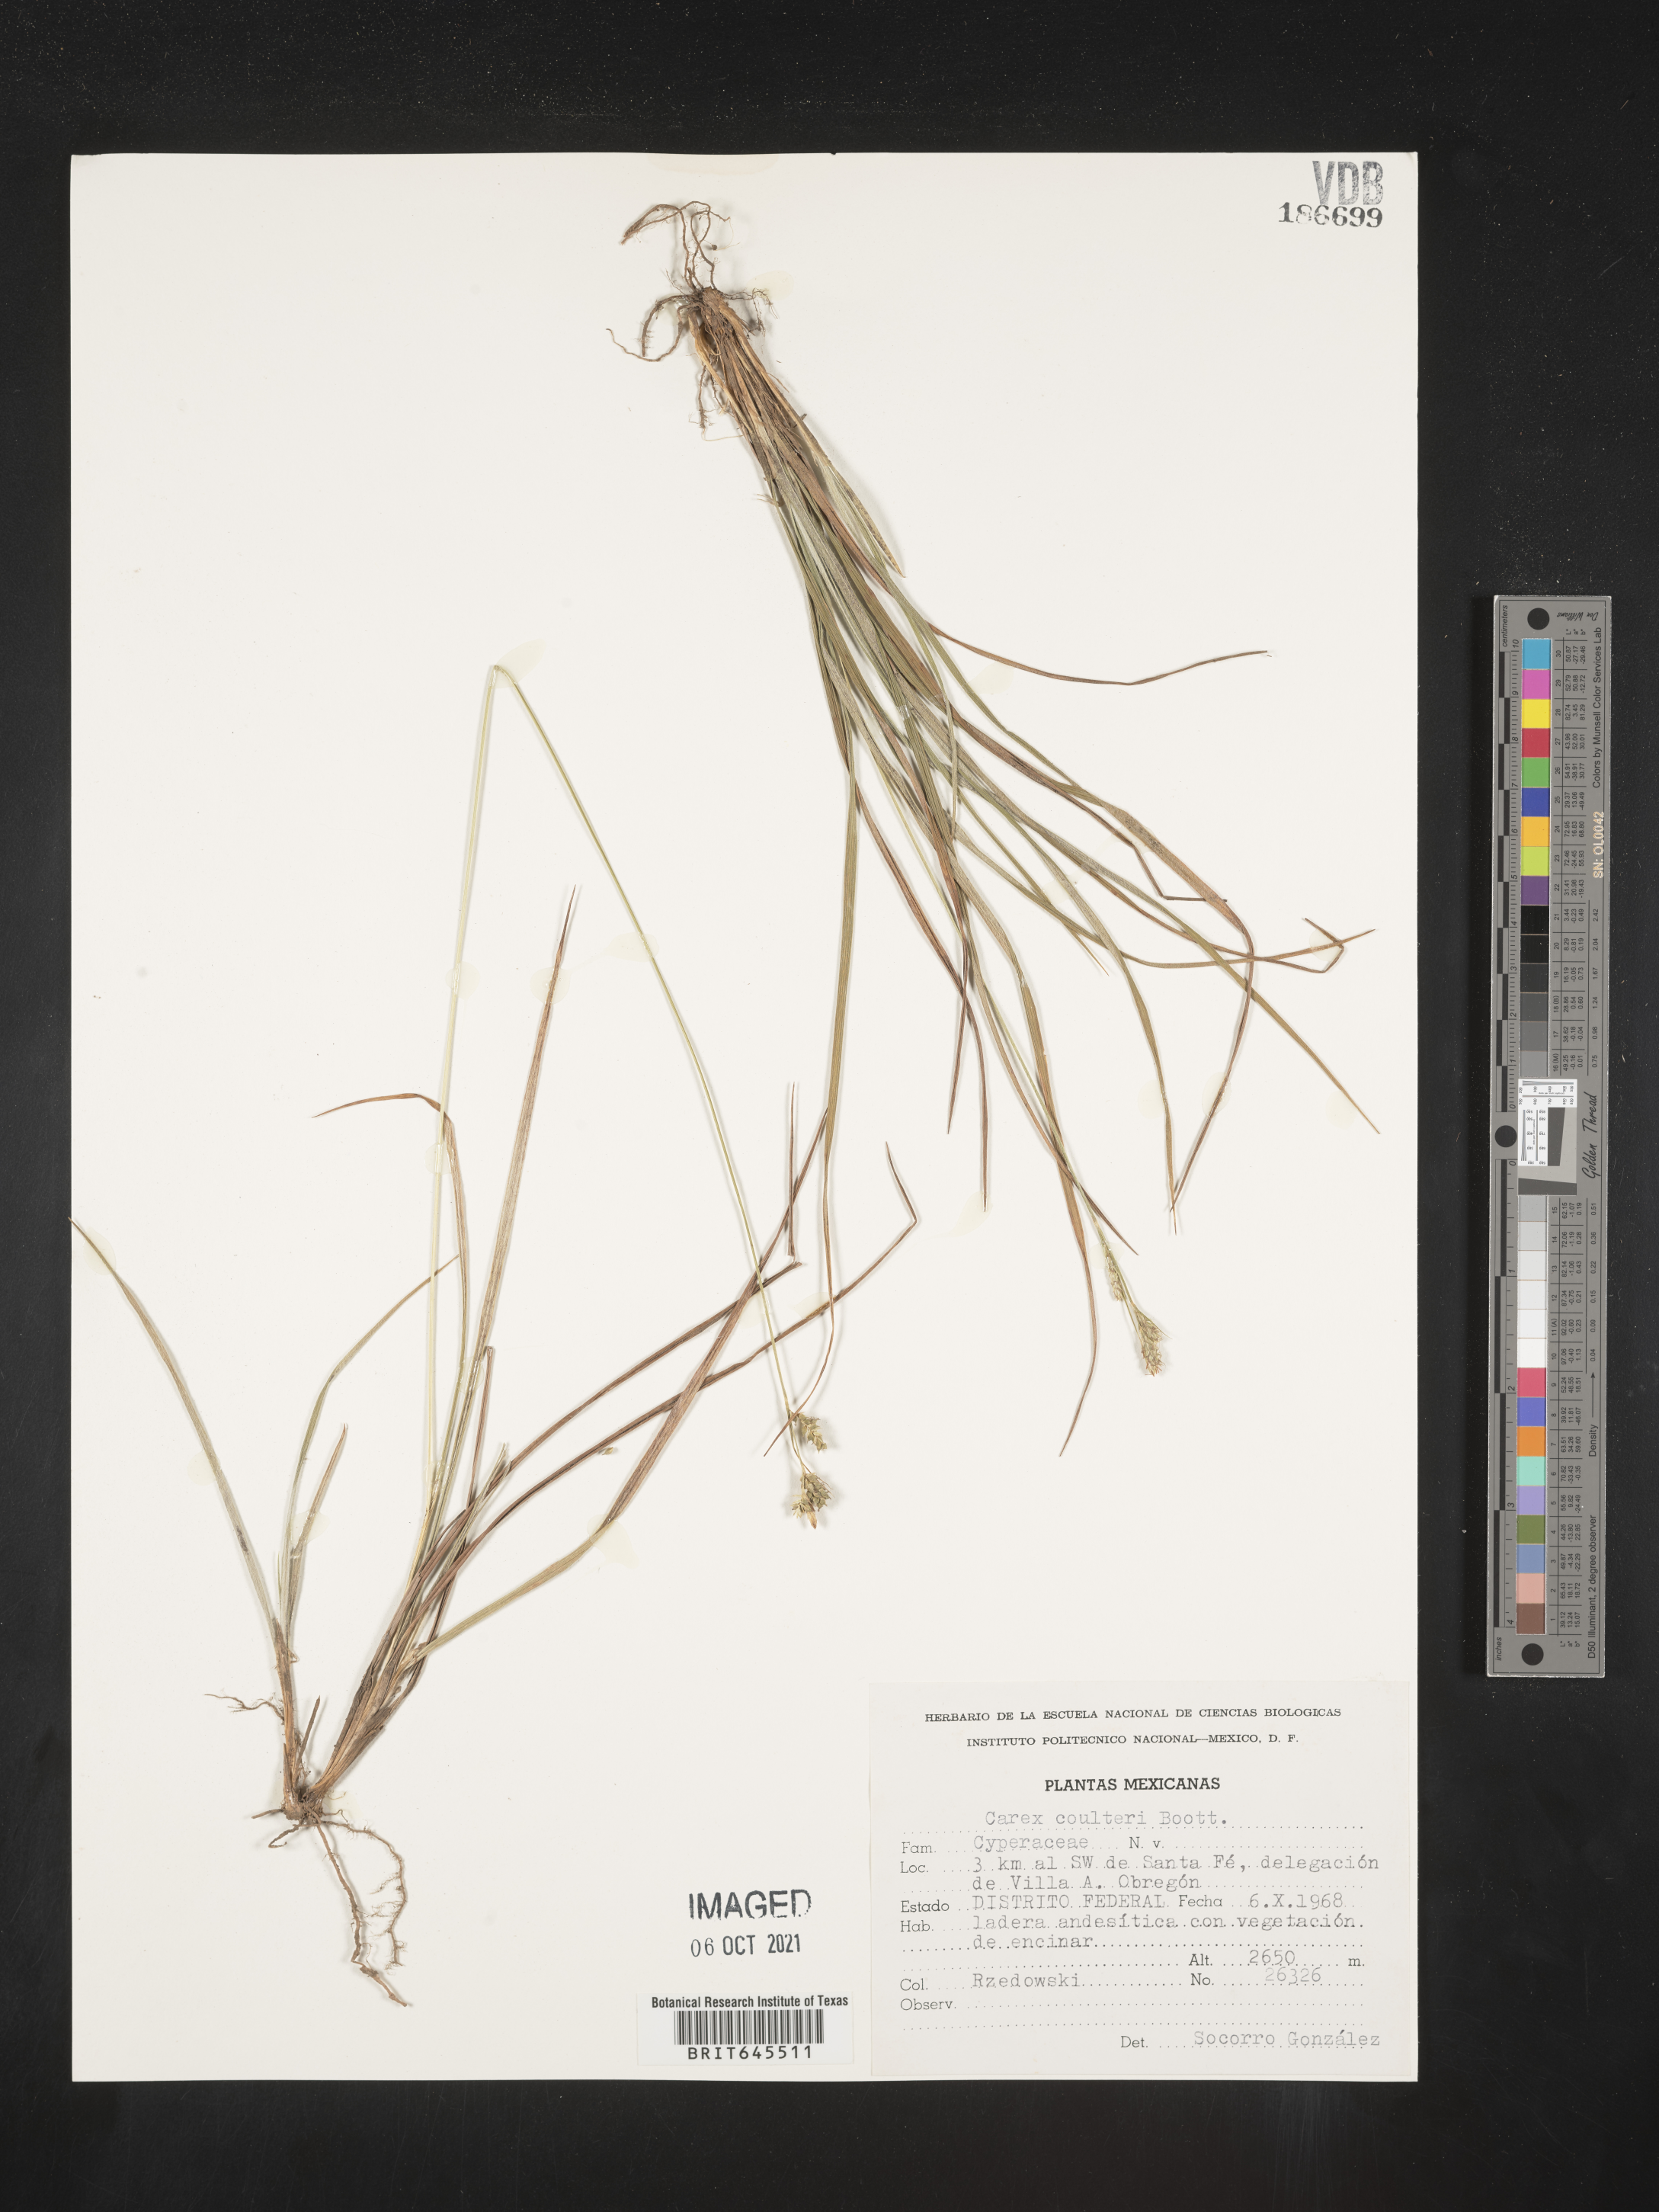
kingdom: Plantae
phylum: Tracheophyta
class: Liliopsida
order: Poales
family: Cyperaceae
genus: Carex
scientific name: Carex
